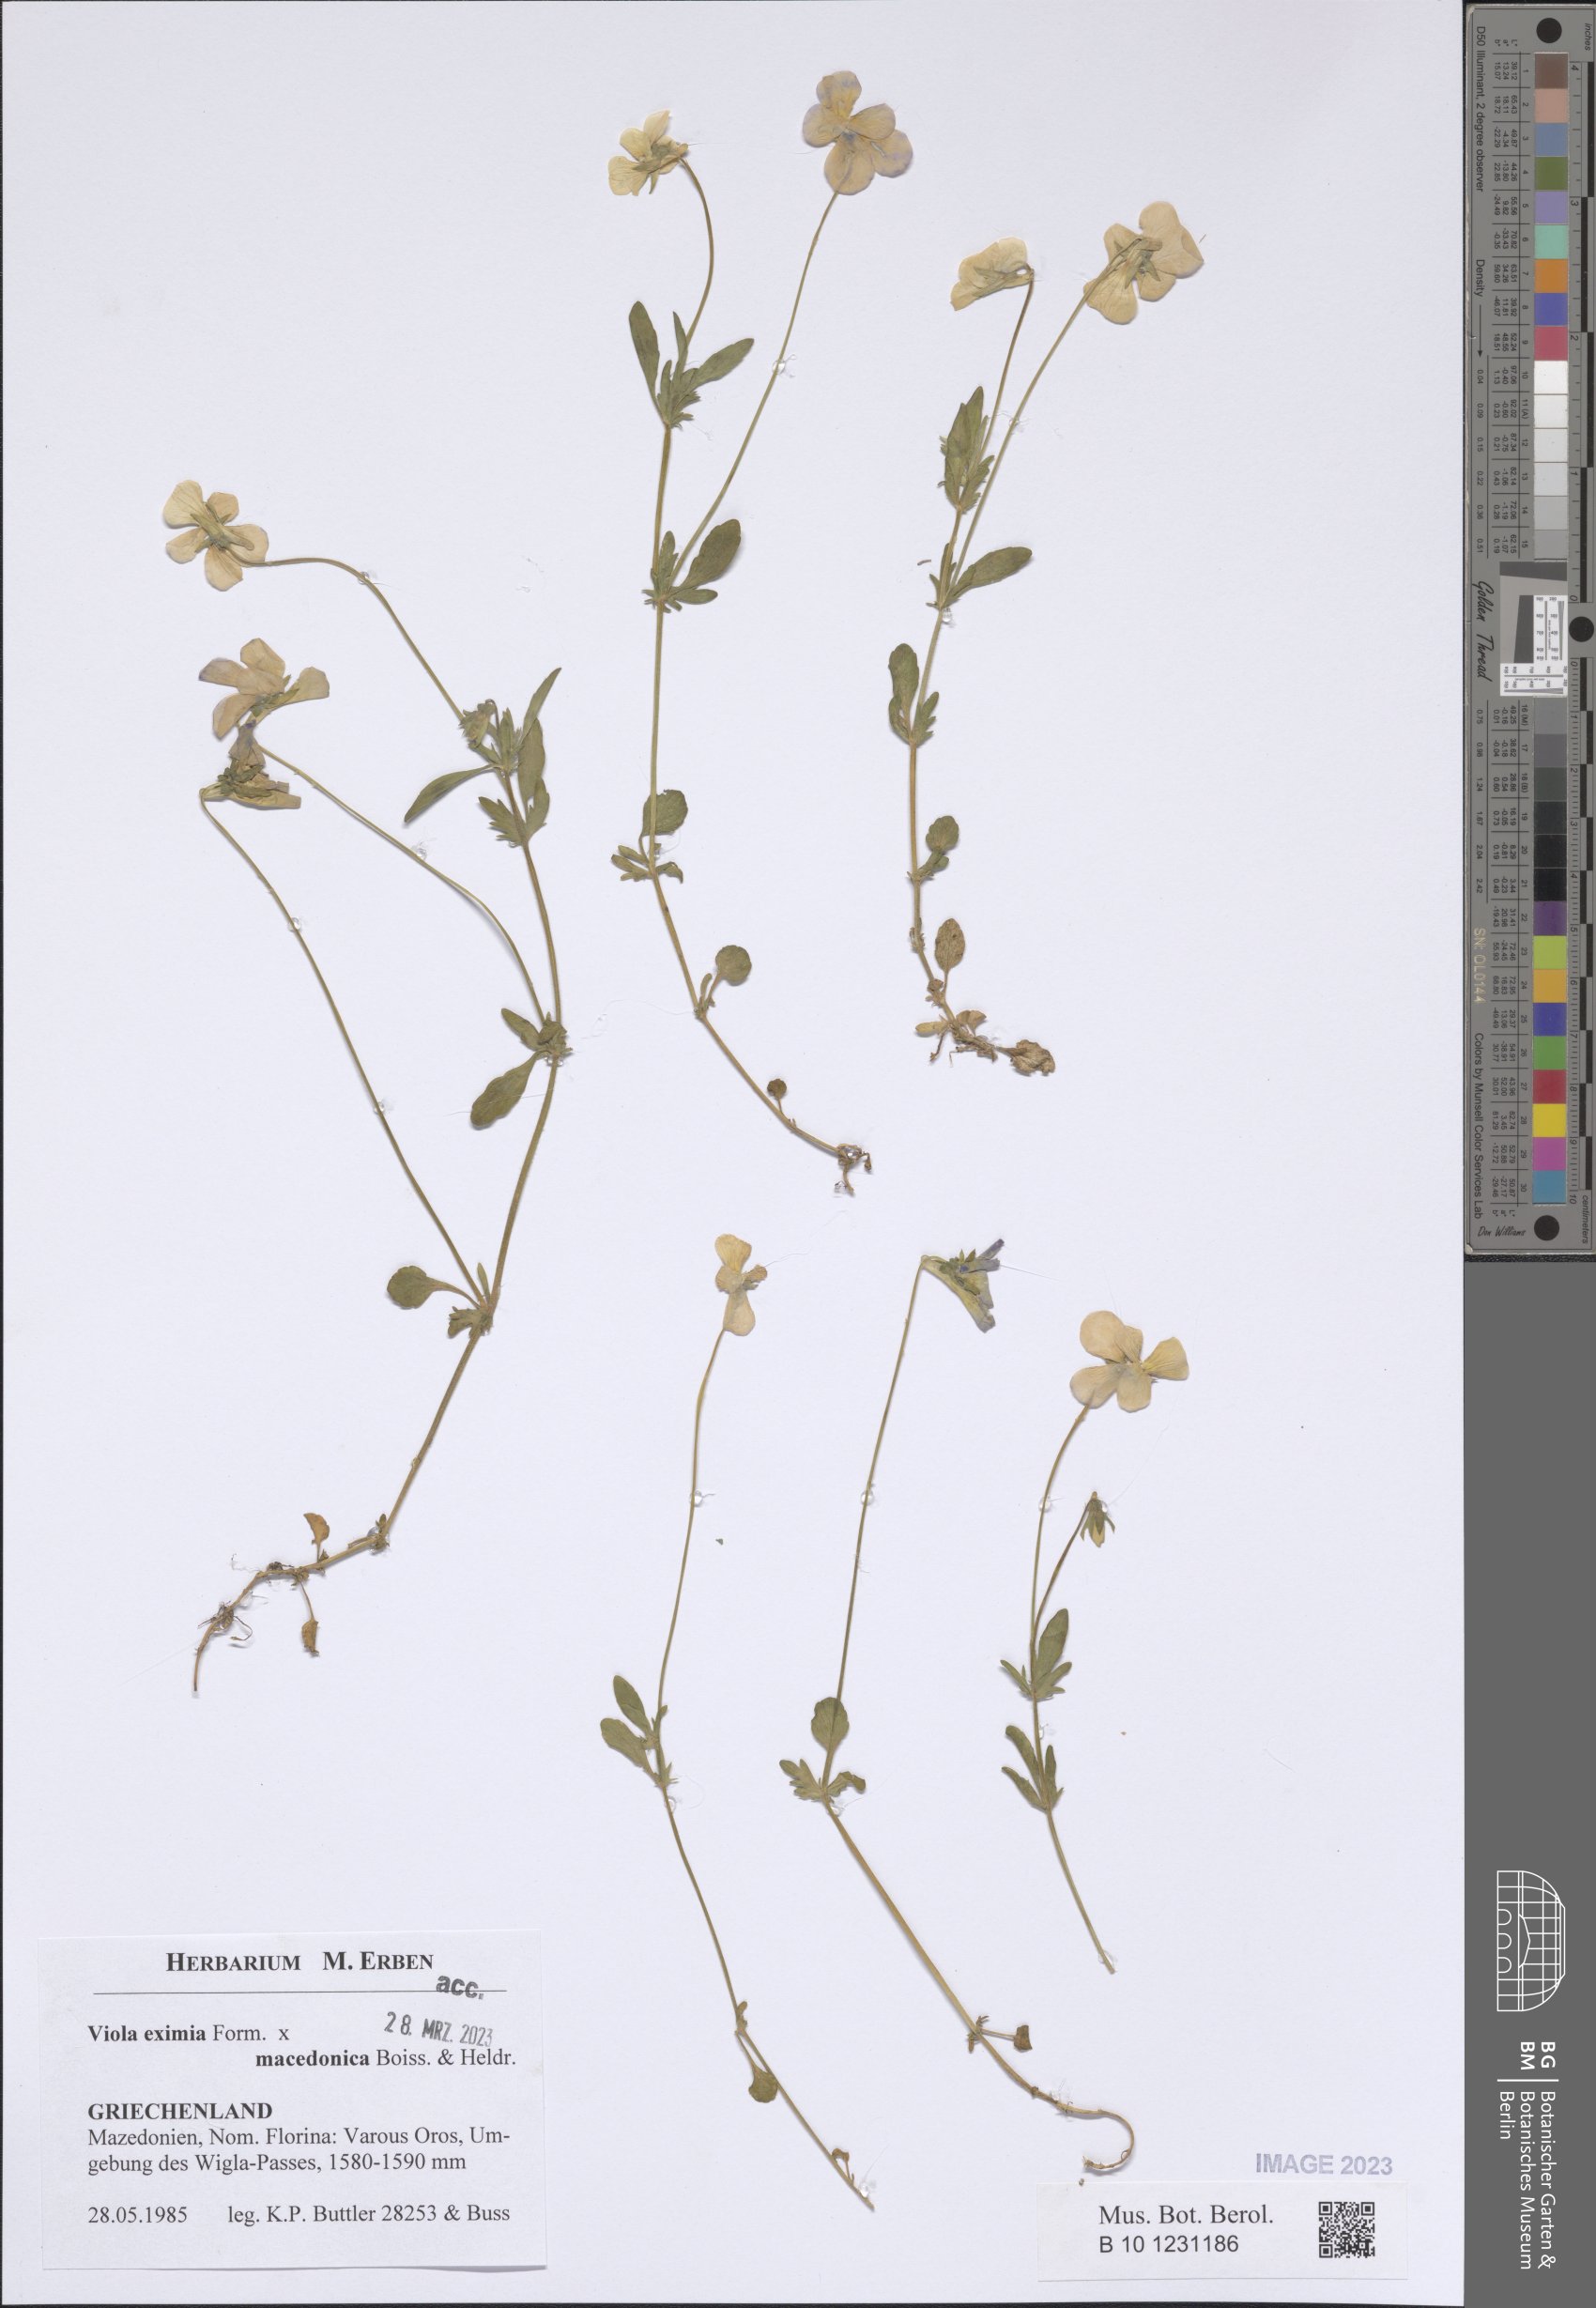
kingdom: Plantae
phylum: Tracheophyta
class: Magnoliopsida
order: Malpighiales
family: Violaceae
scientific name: Violaceae
